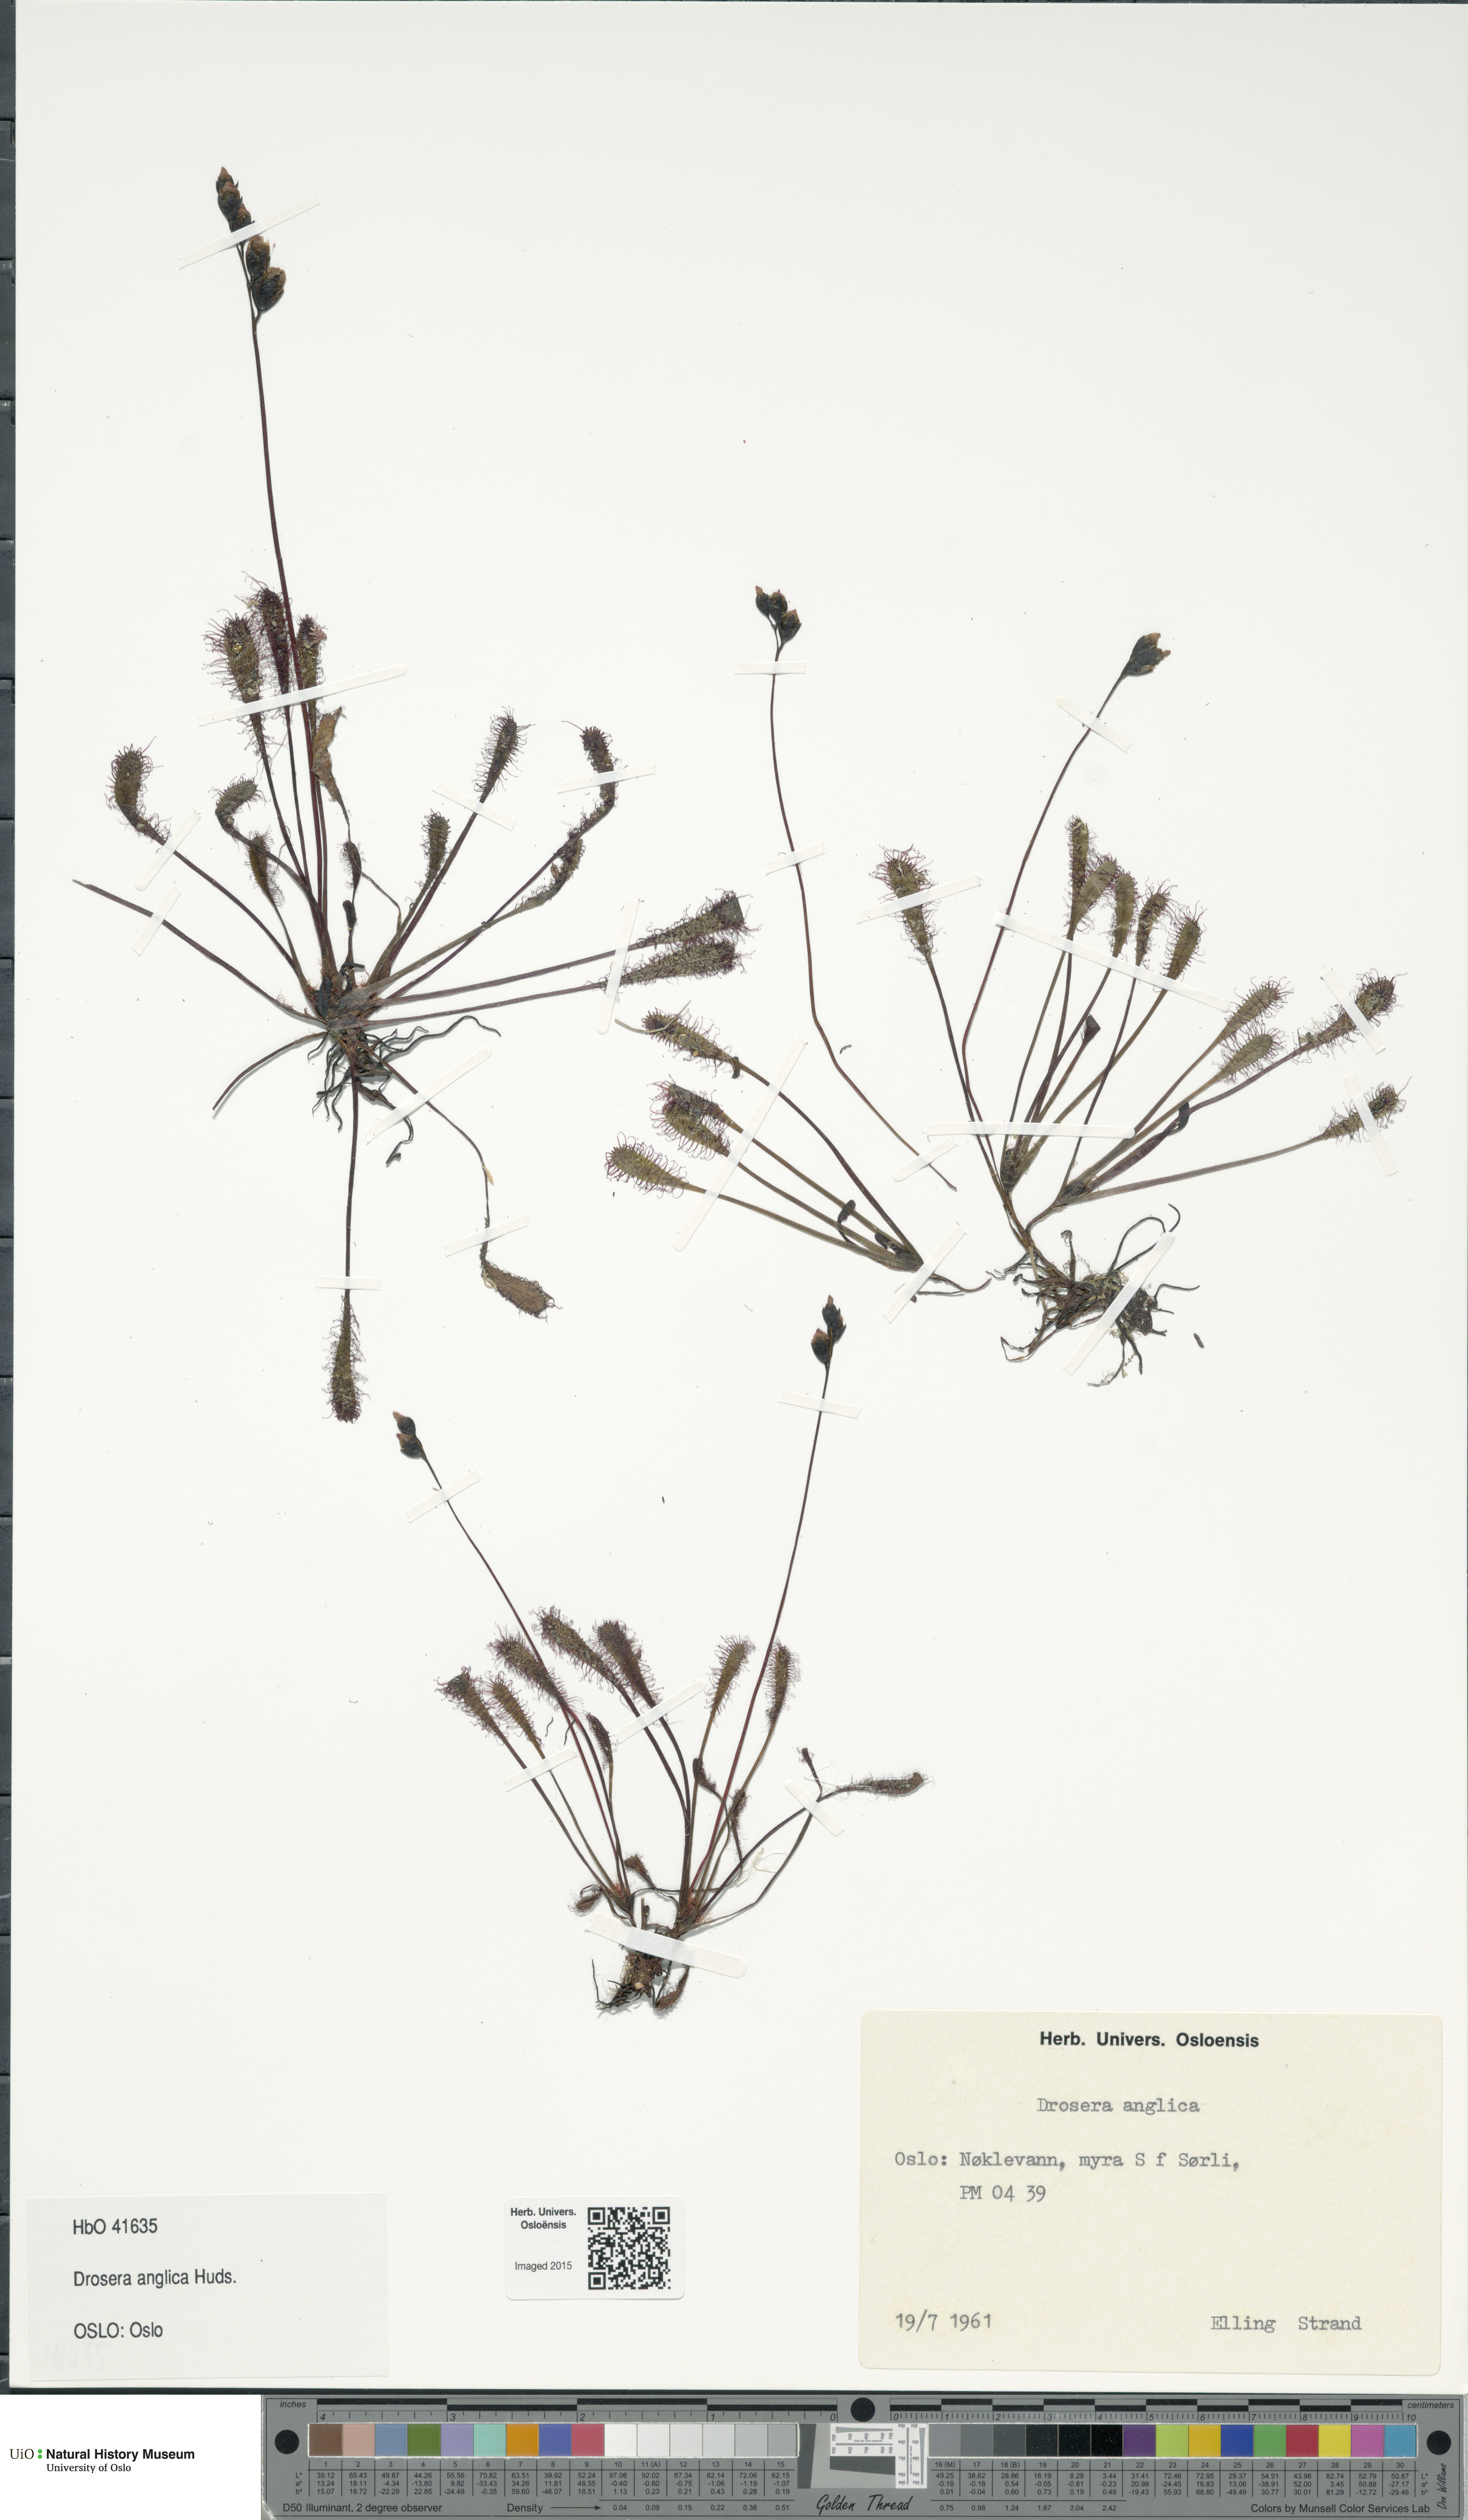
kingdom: Plantae
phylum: Tracheophyta
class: Magnoliopsida
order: Caryophyllales
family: Droseraceae
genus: Drosera
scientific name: Drosera anglica
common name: Great sundew
